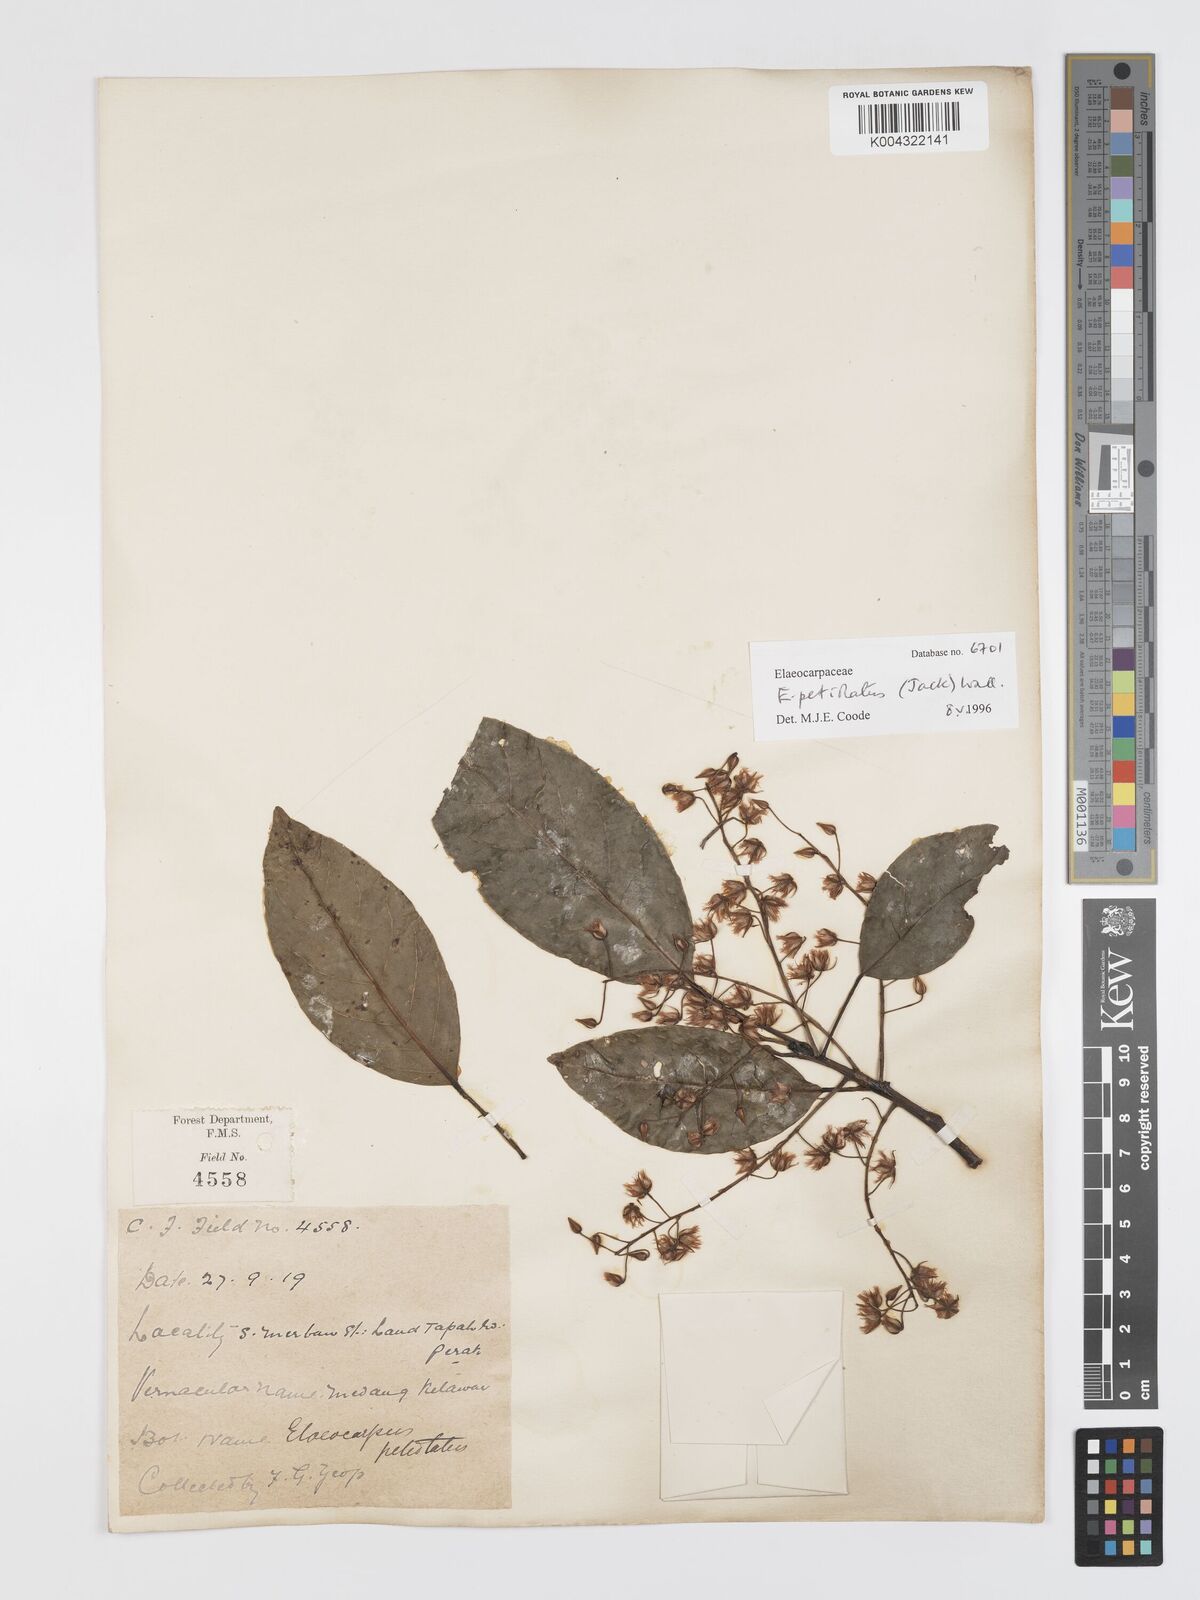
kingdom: Plantae
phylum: Tracheophyta
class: Magnoliopsida
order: Oxalidales
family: Elaeocarpaceae
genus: Elaeocarpus
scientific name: Elaeocarpus petiolatus
